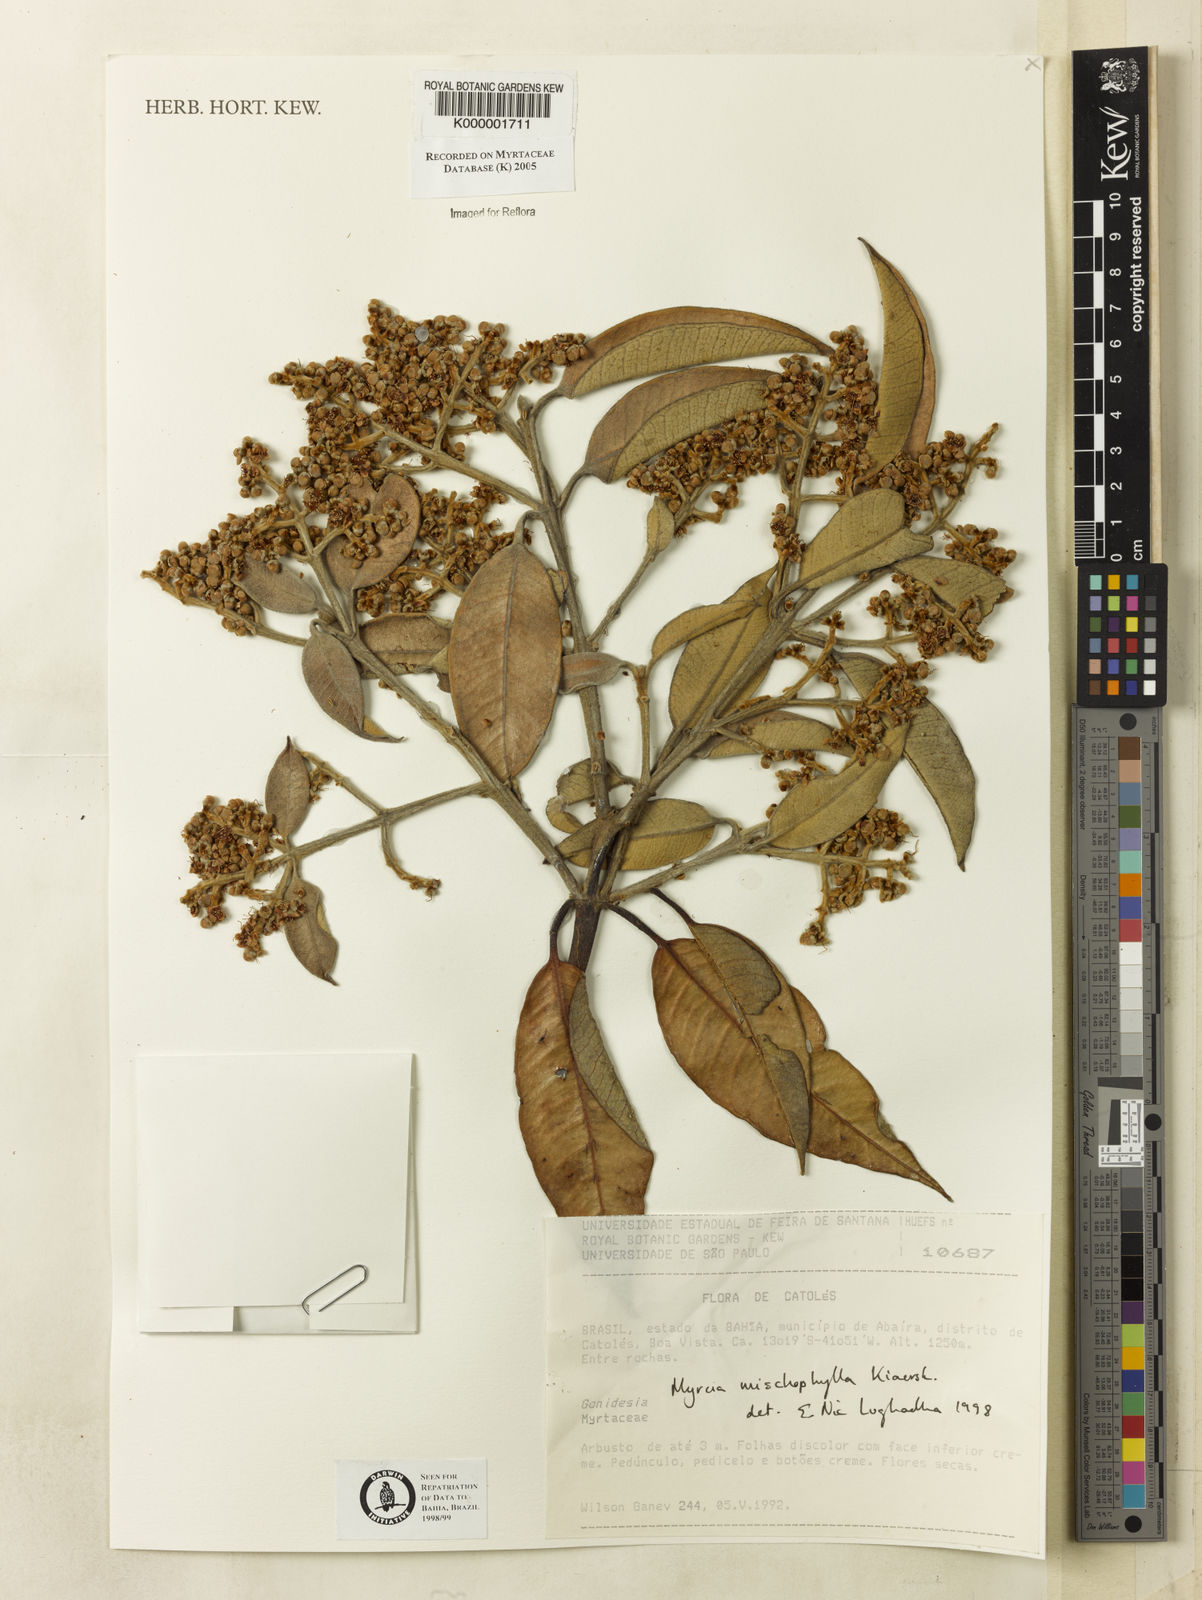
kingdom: Plantae
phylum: Tracheophyta
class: Magnoliopsida
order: Myrtales
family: Myrtaceae
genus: Myrcia
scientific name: Myrcia mischophylla
